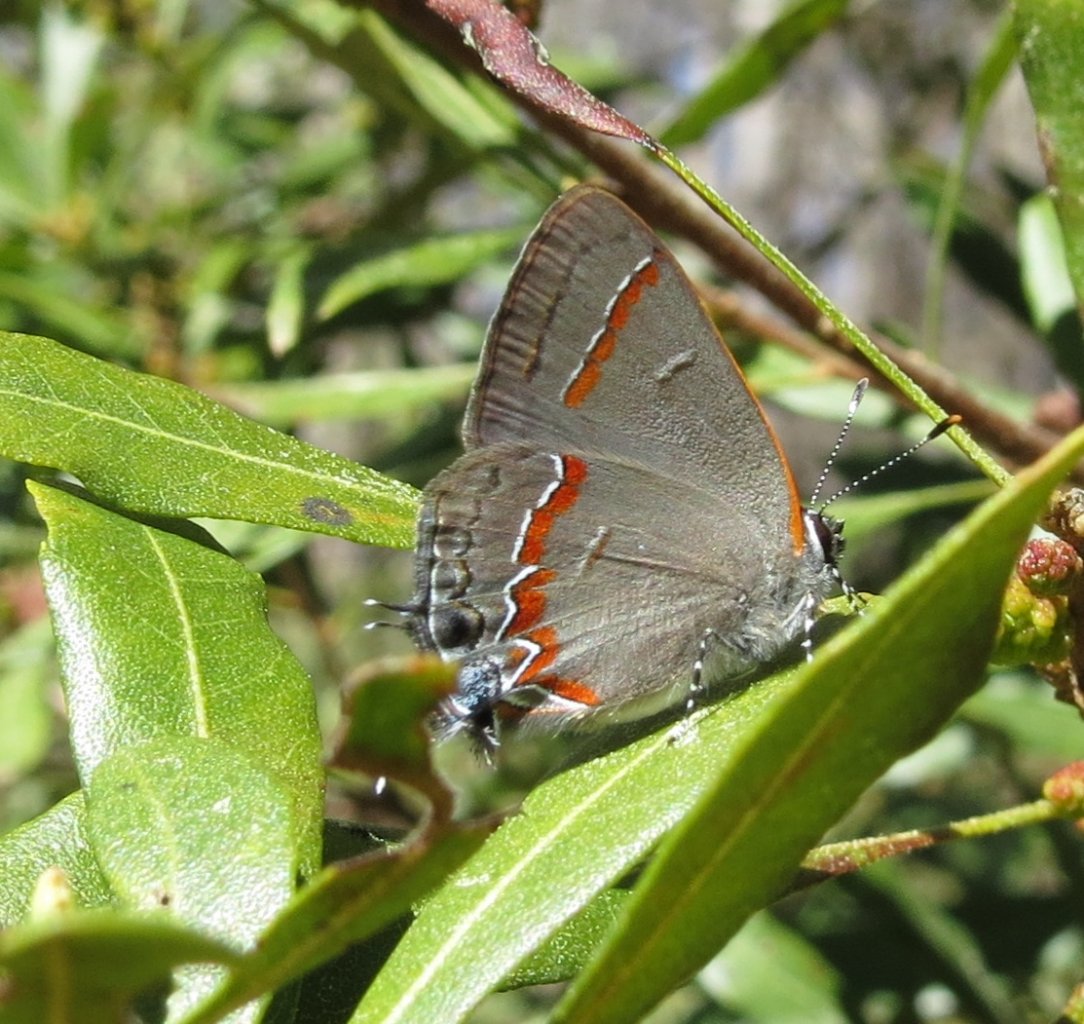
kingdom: Animalia
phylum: Arthropoda
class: Insecta
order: Lepidoptera
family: Lycaenidae
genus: Calycopis
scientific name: Calycopis cecrops
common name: Red-banded Hairstreak
